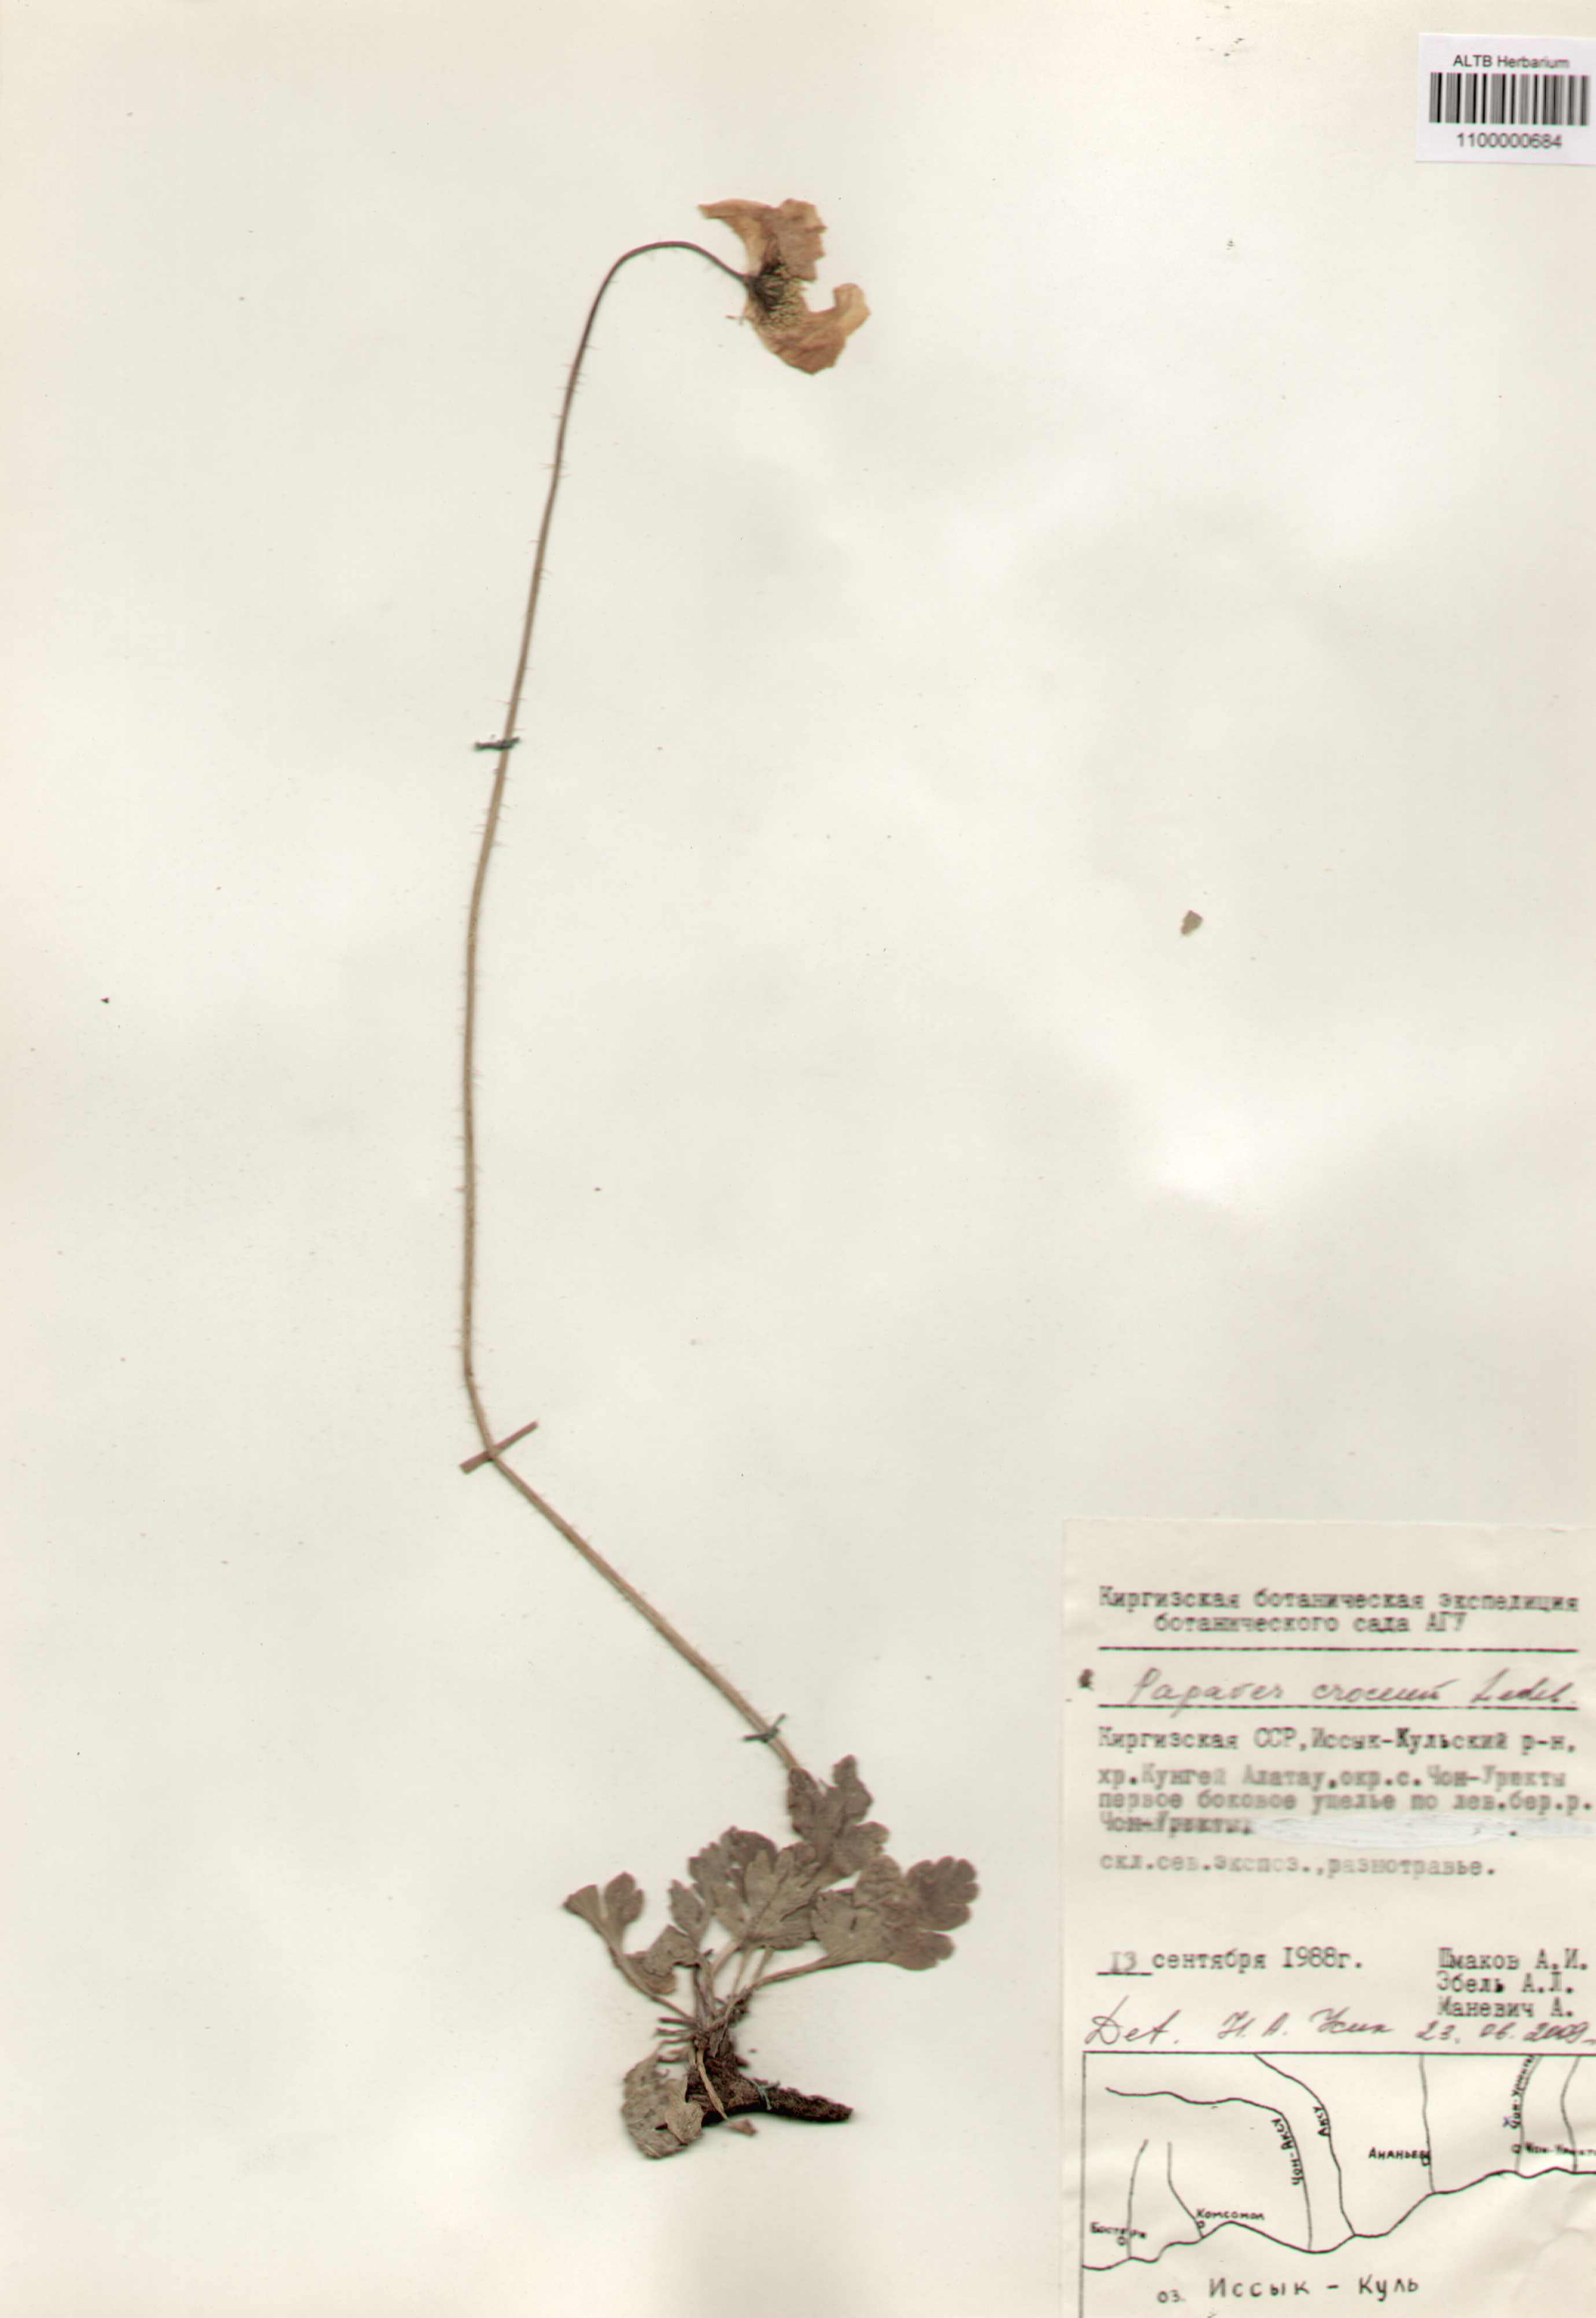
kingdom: Plantae
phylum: Tracheophyta
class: Magnoliopsida
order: Ranunculales
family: Papaveraceae
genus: Papaver
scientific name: Papaver croceum
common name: Siberian poppy
